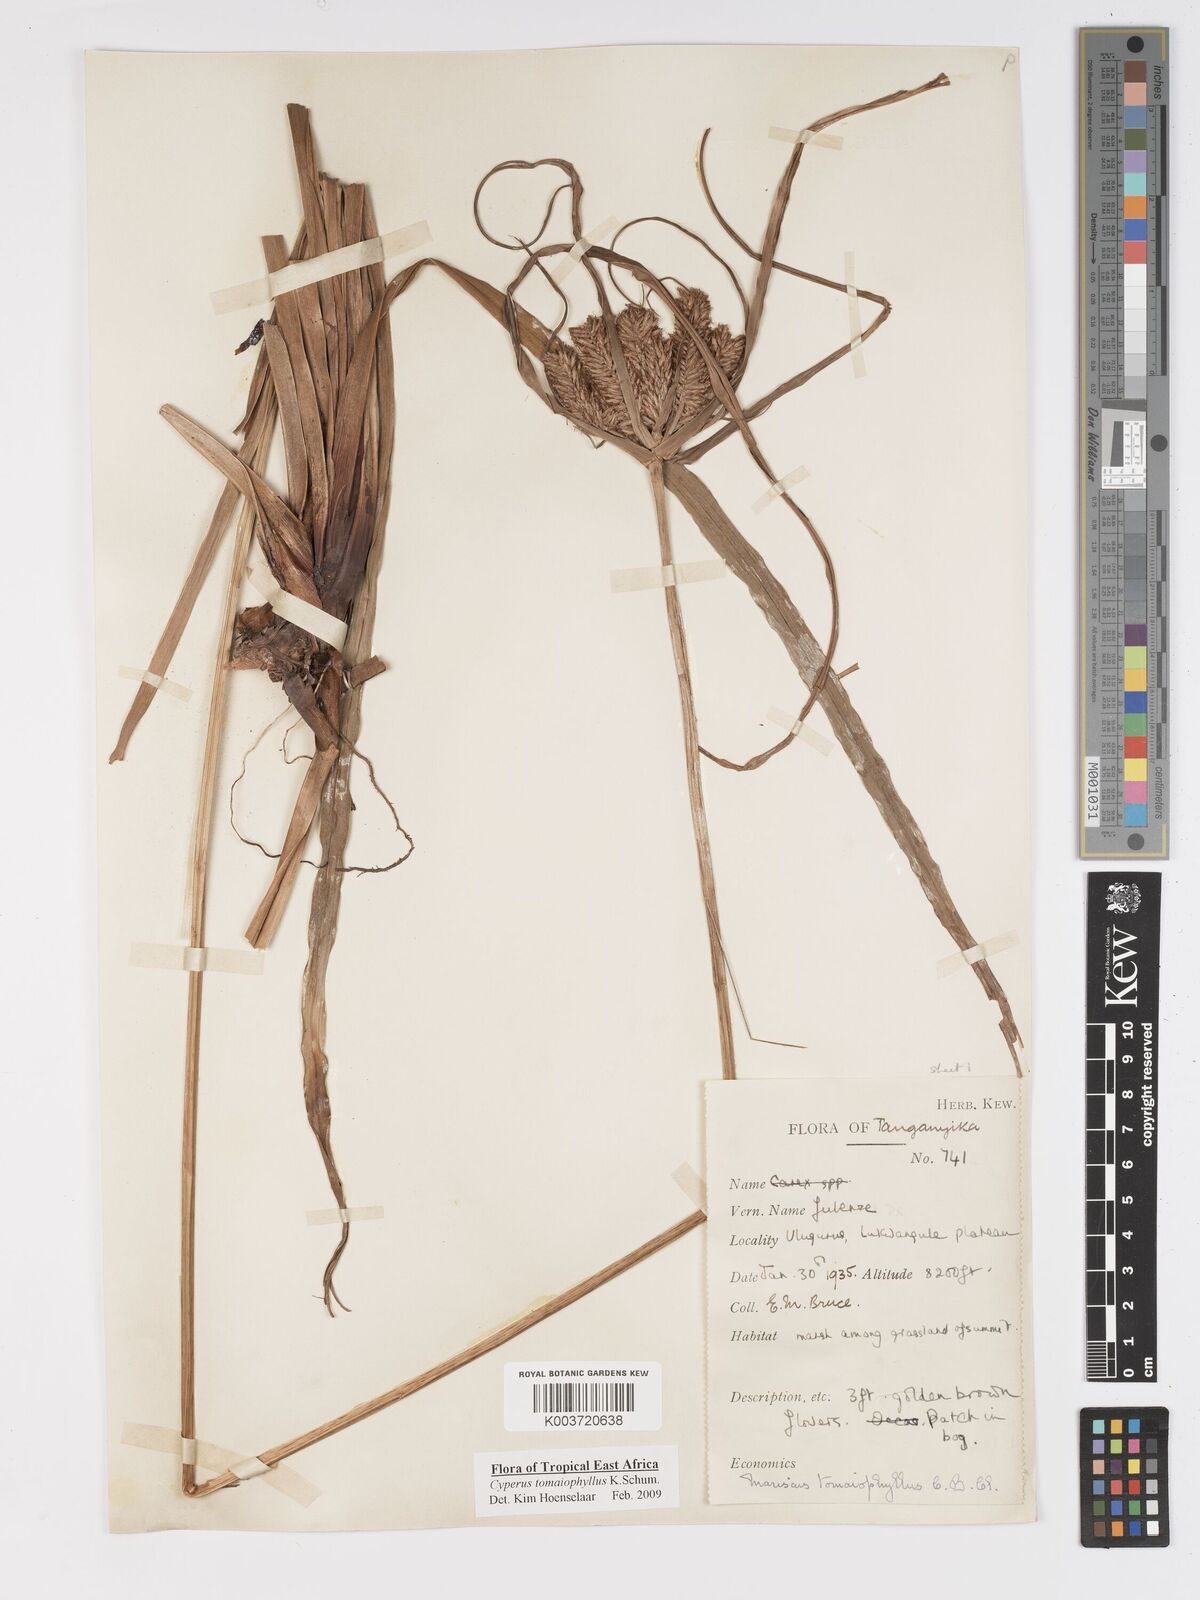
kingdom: Plantae
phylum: Tracheophyta
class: Liliopsida
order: Poales
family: Cyperaceae
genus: Cyperus
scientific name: Cyperus tomaiophyllus
